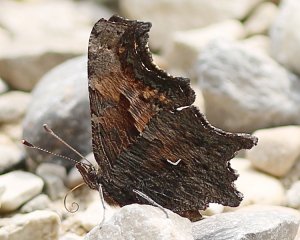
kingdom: Animalia
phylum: Arthropoda
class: Insecta
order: Lepidoptera
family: Nymphalidae
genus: Polygonia
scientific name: Polygonia progne
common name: Gray Comma
